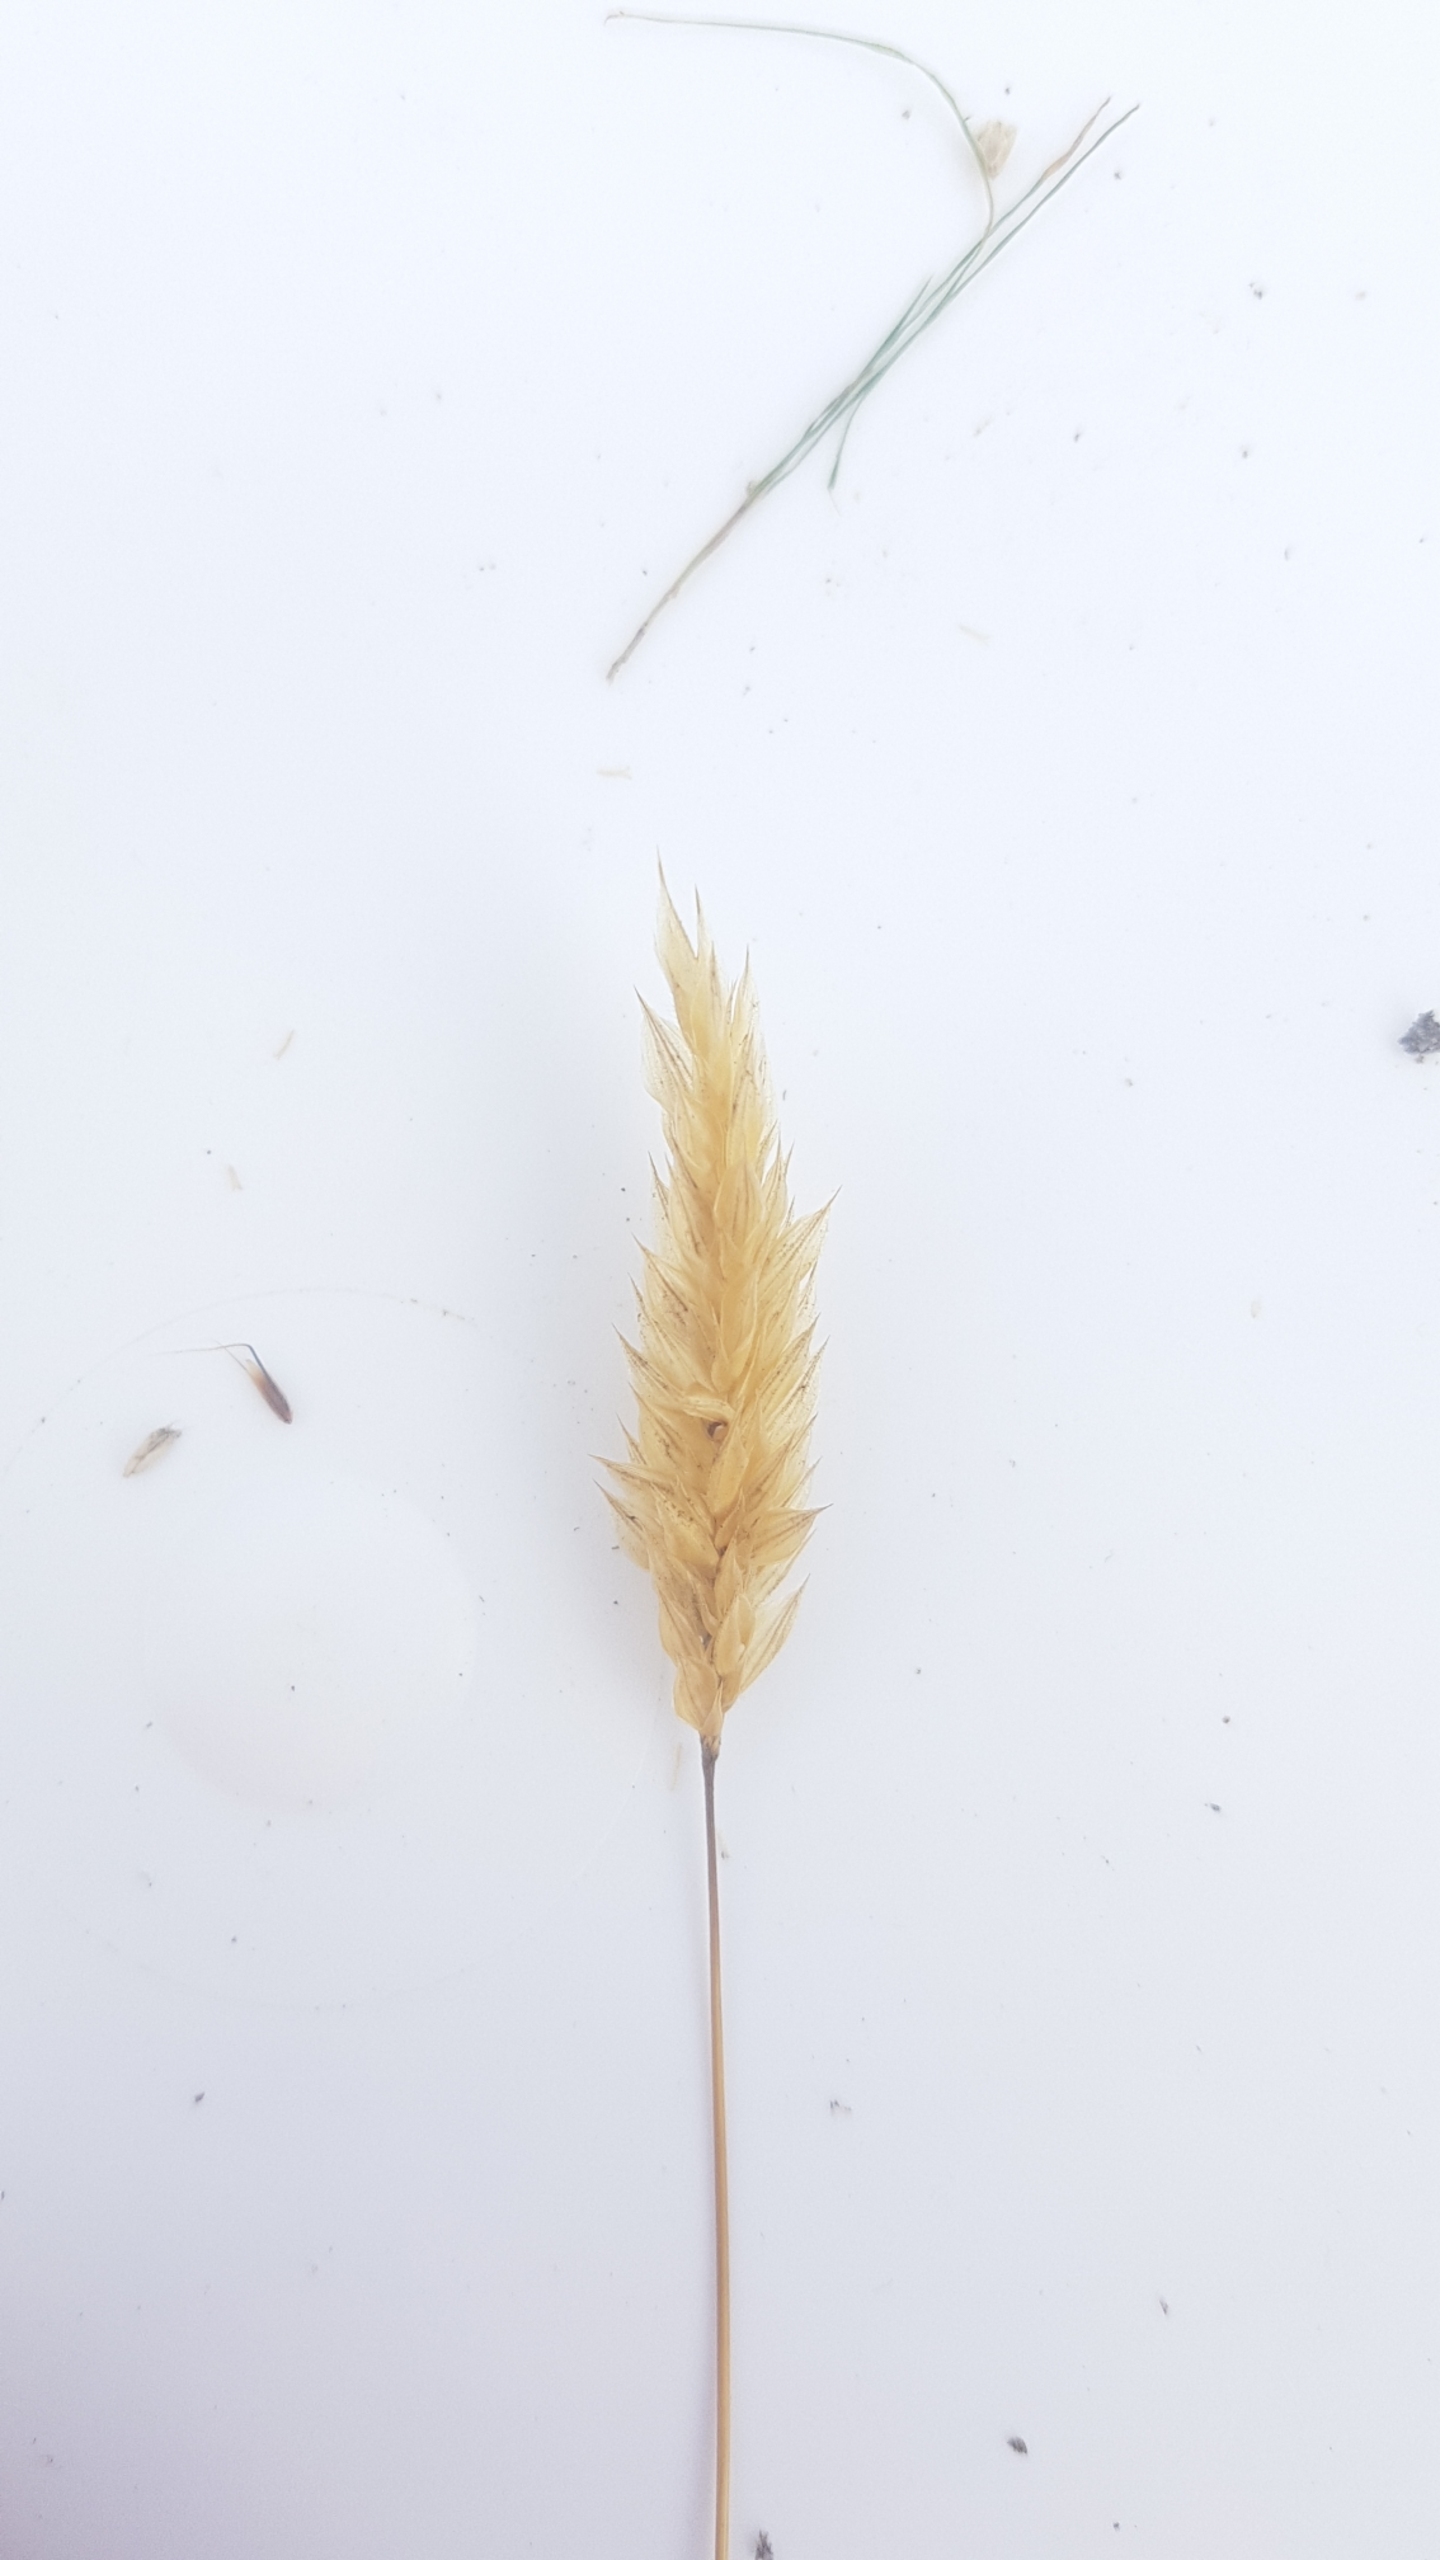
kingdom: Plantae
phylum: Tracheophyta
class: Liliopsida
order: Poales
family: Poaceae
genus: Anthoxanthum
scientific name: Anthoxanthum odoratum
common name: Vellugtende gulaks
